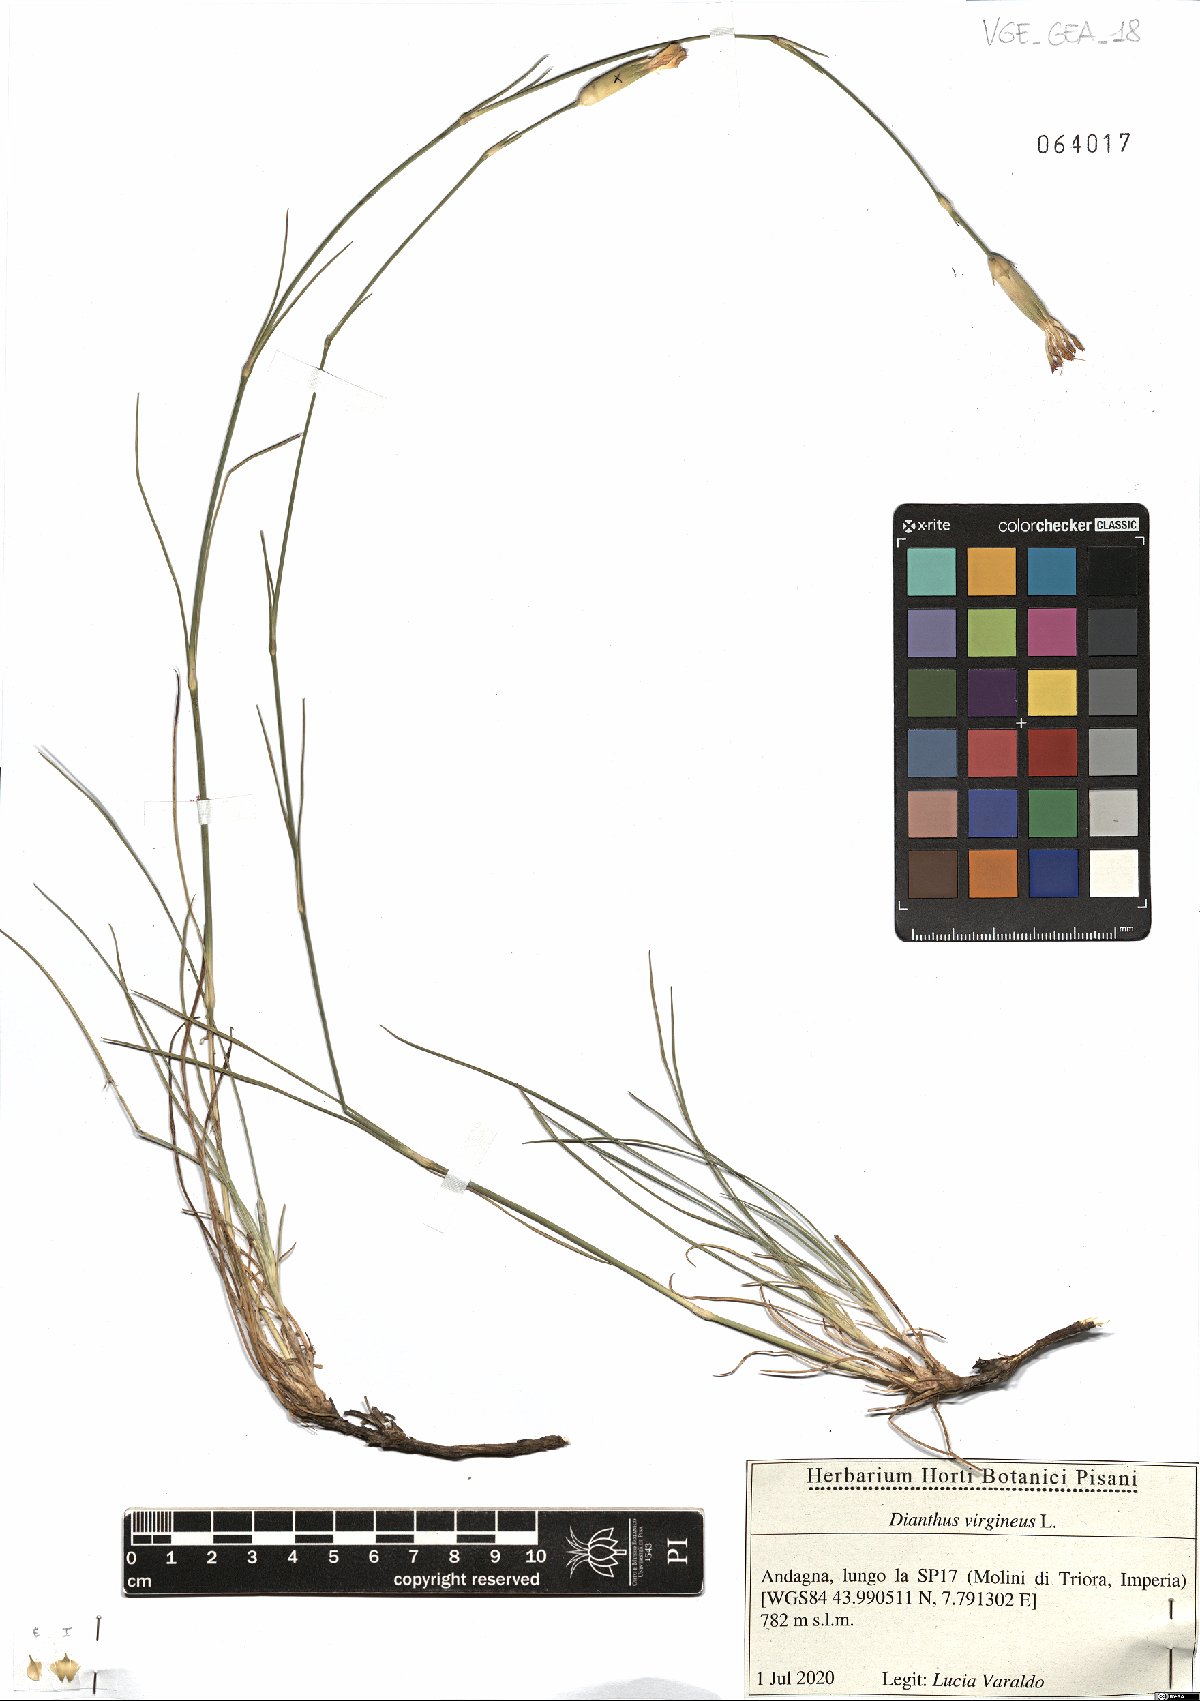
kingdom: Plantae
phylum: Tracheophyta
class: Magnoliopsida
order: Caryophyllales
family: Caryophyllaceae
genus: Dianthus
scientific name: Dianthus virgineus
